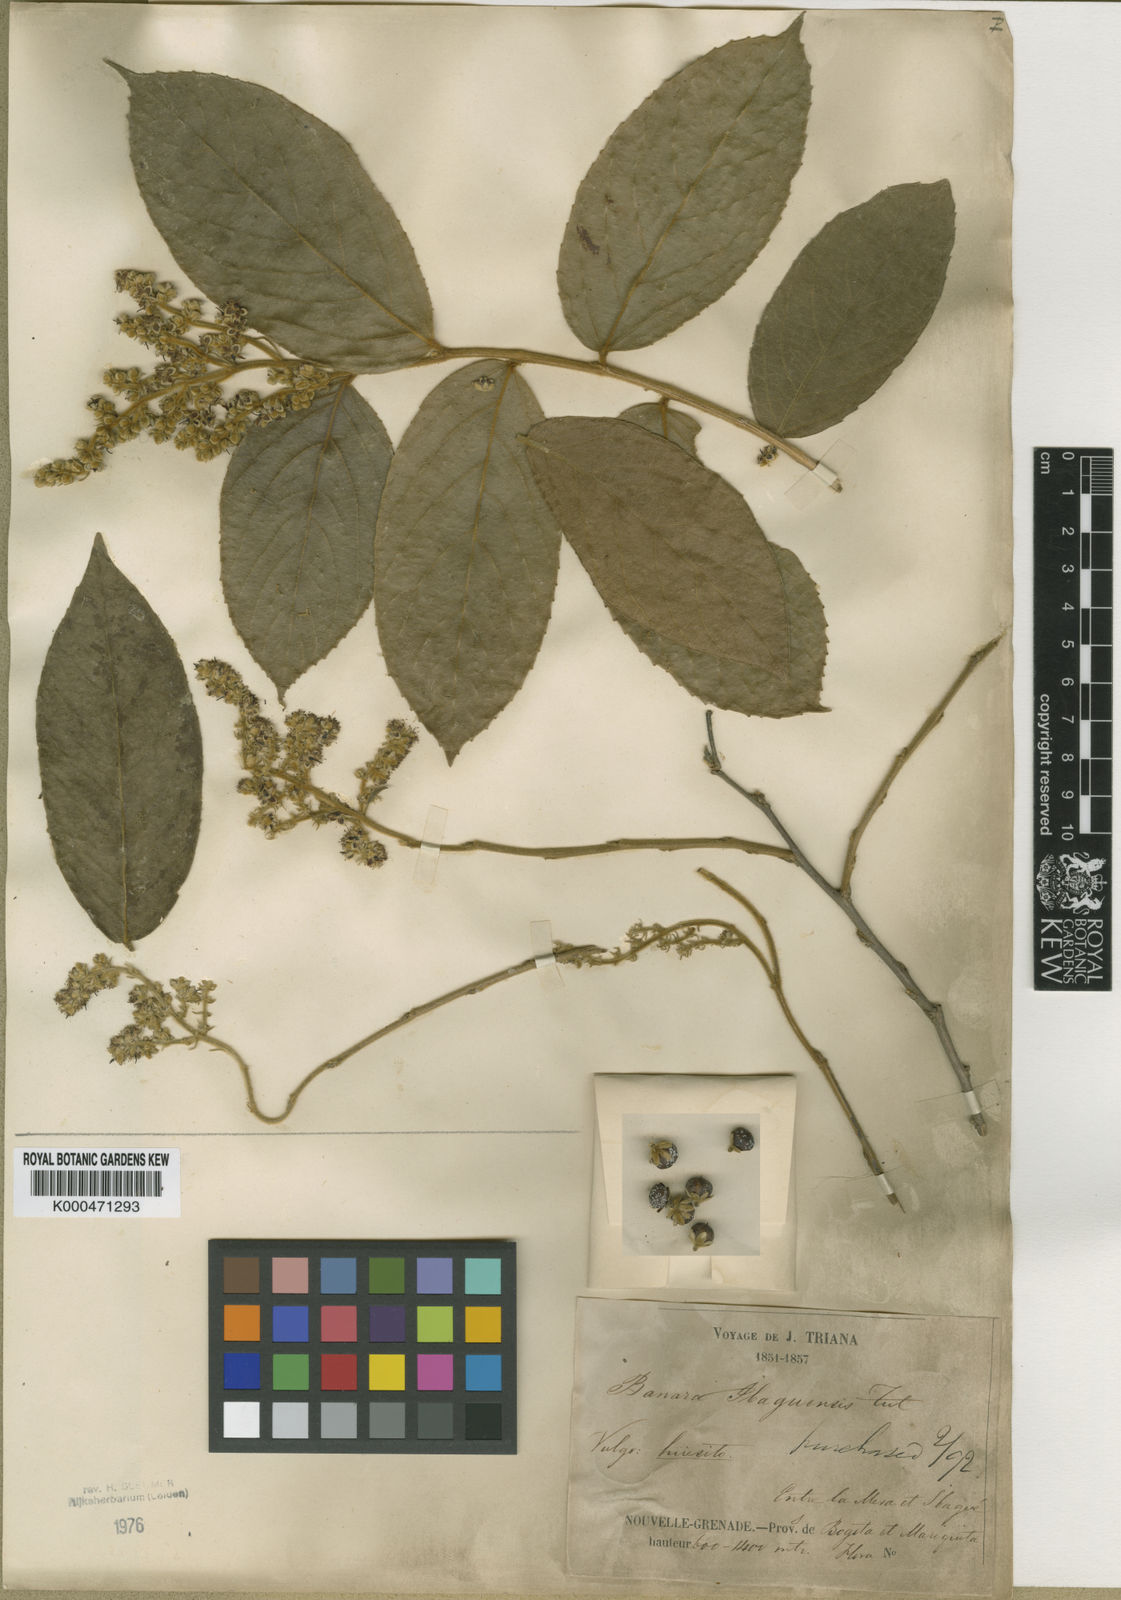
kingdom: Plantae
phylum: Tracheophyta
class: Magnoliopsida
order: Malpighiales
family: Salicaceae
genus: Banara
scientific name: Banara ibaguensis
